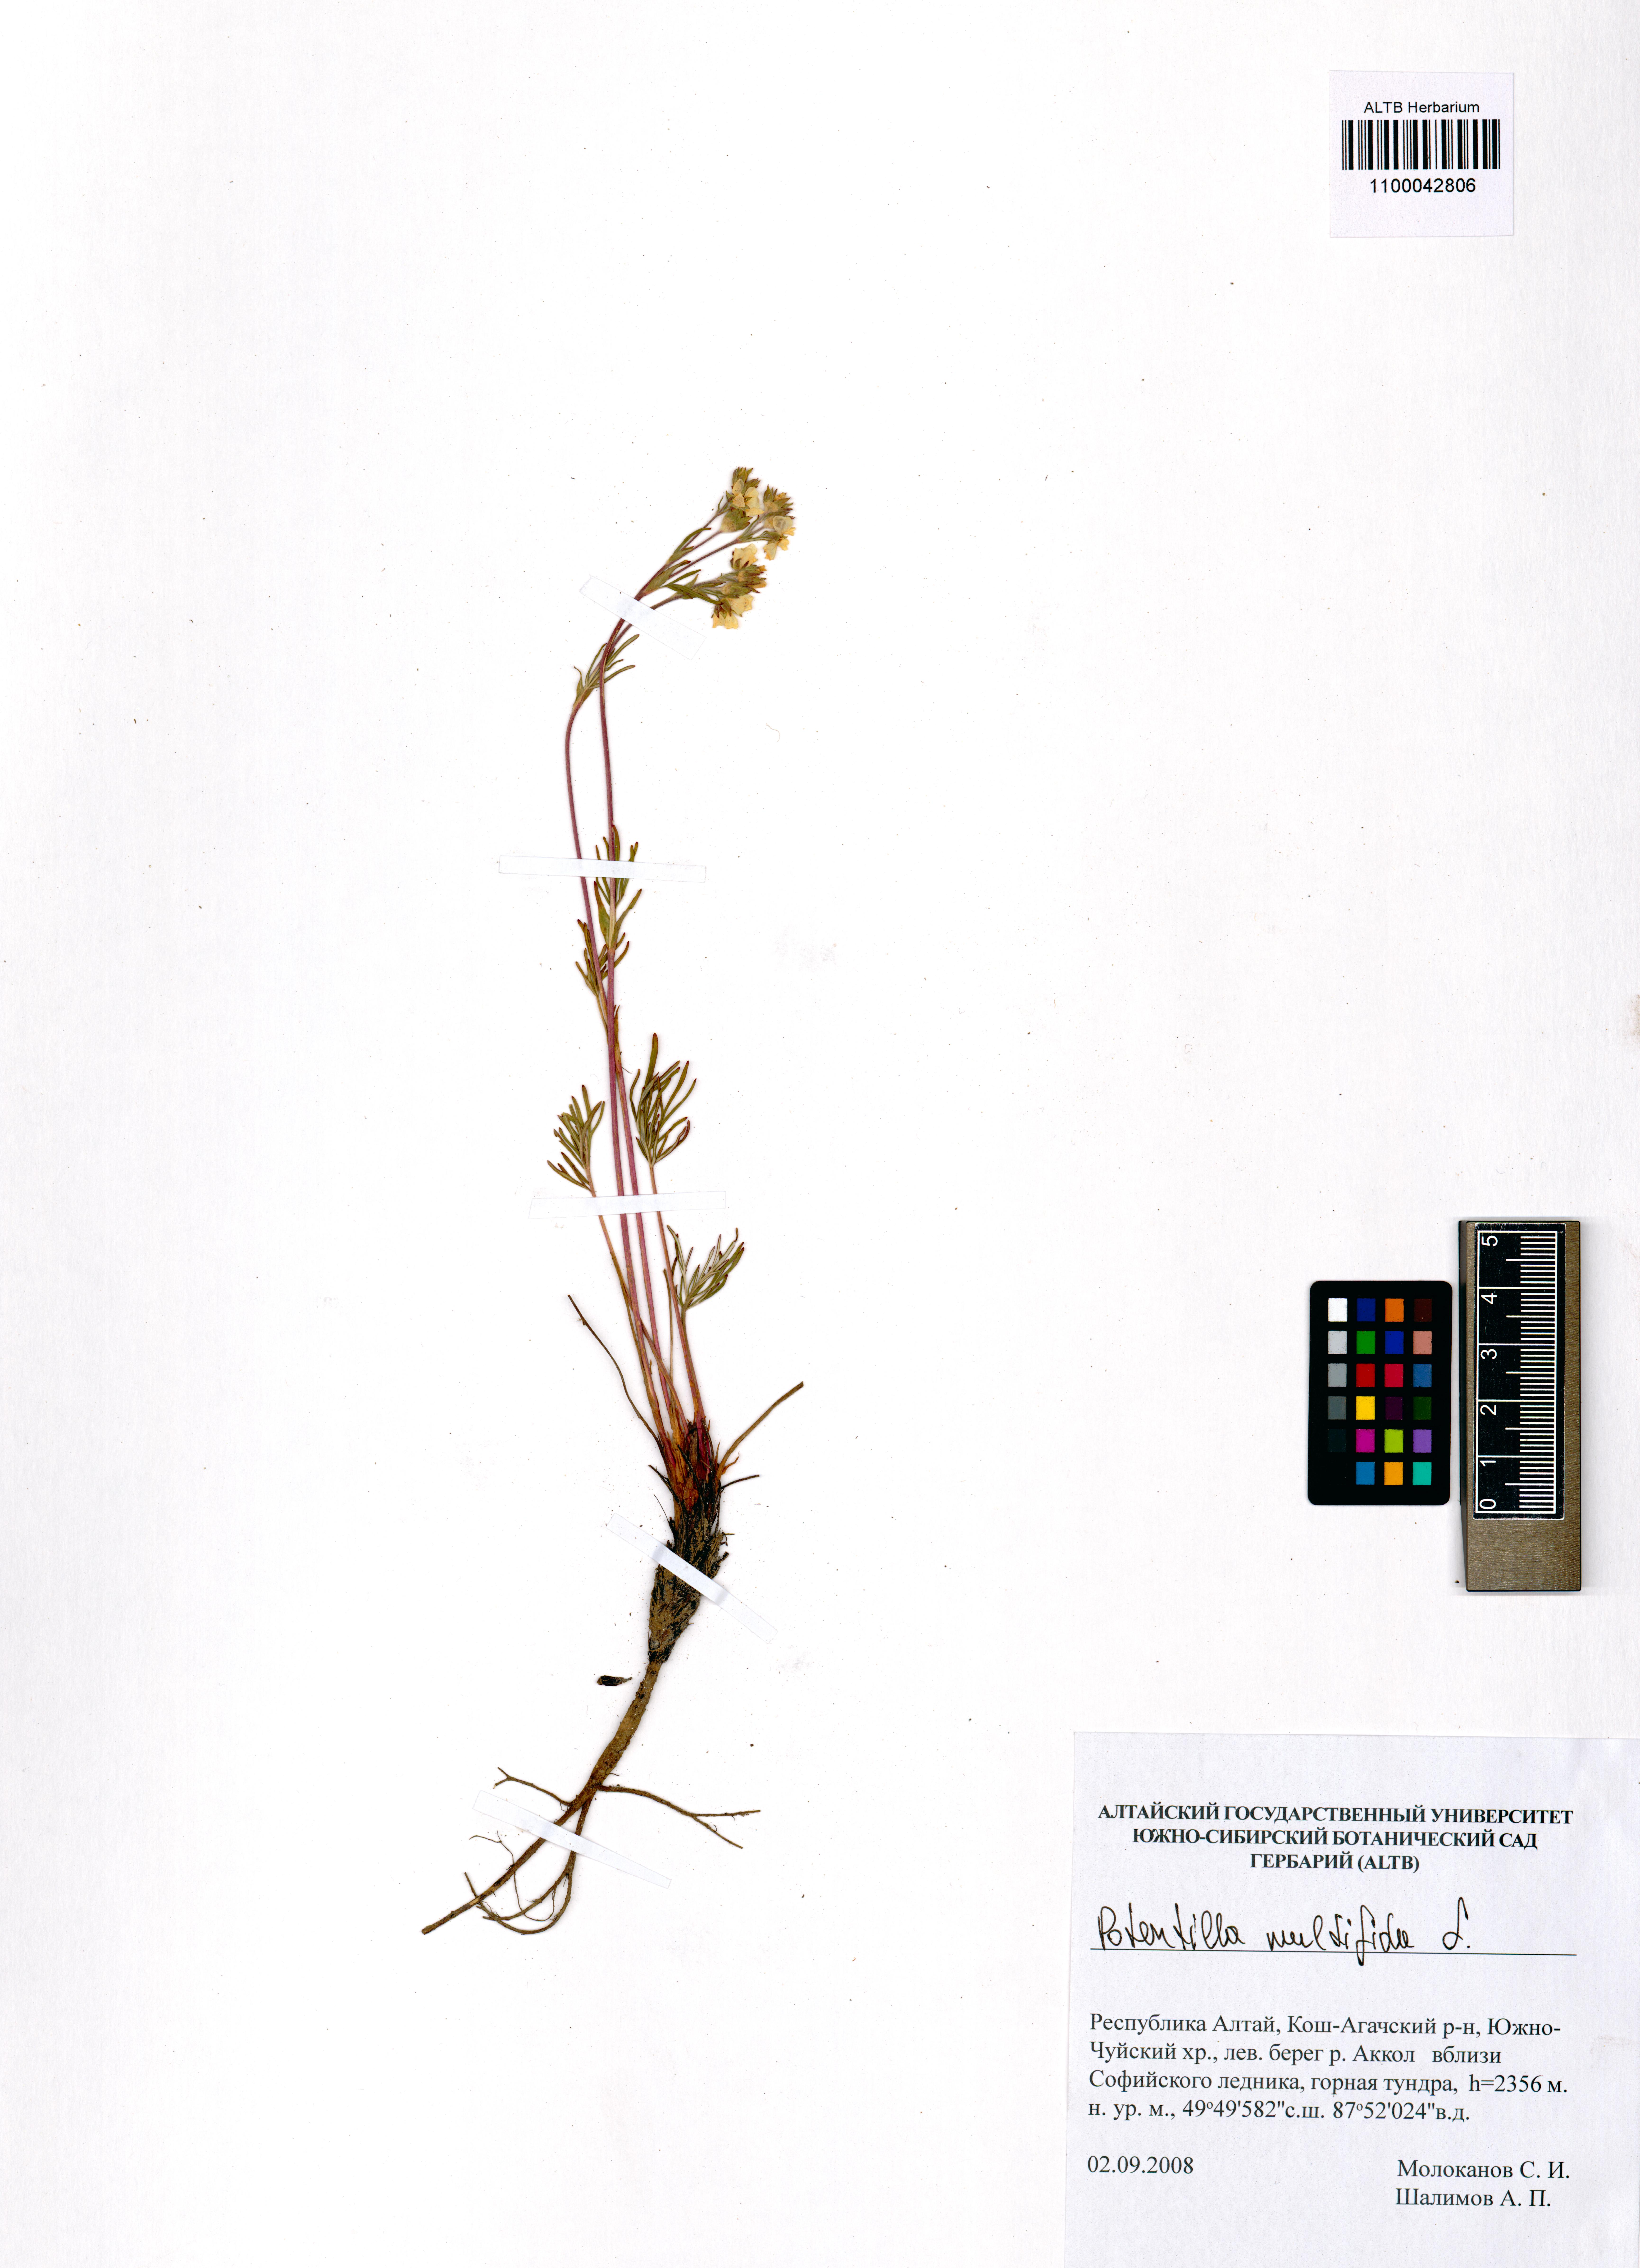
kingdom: Plantae
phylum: Tracheophyta
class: Magnoliopsida
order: Rosales
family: Rosaceae
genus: Potentilla
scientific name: Potentilla multifida
